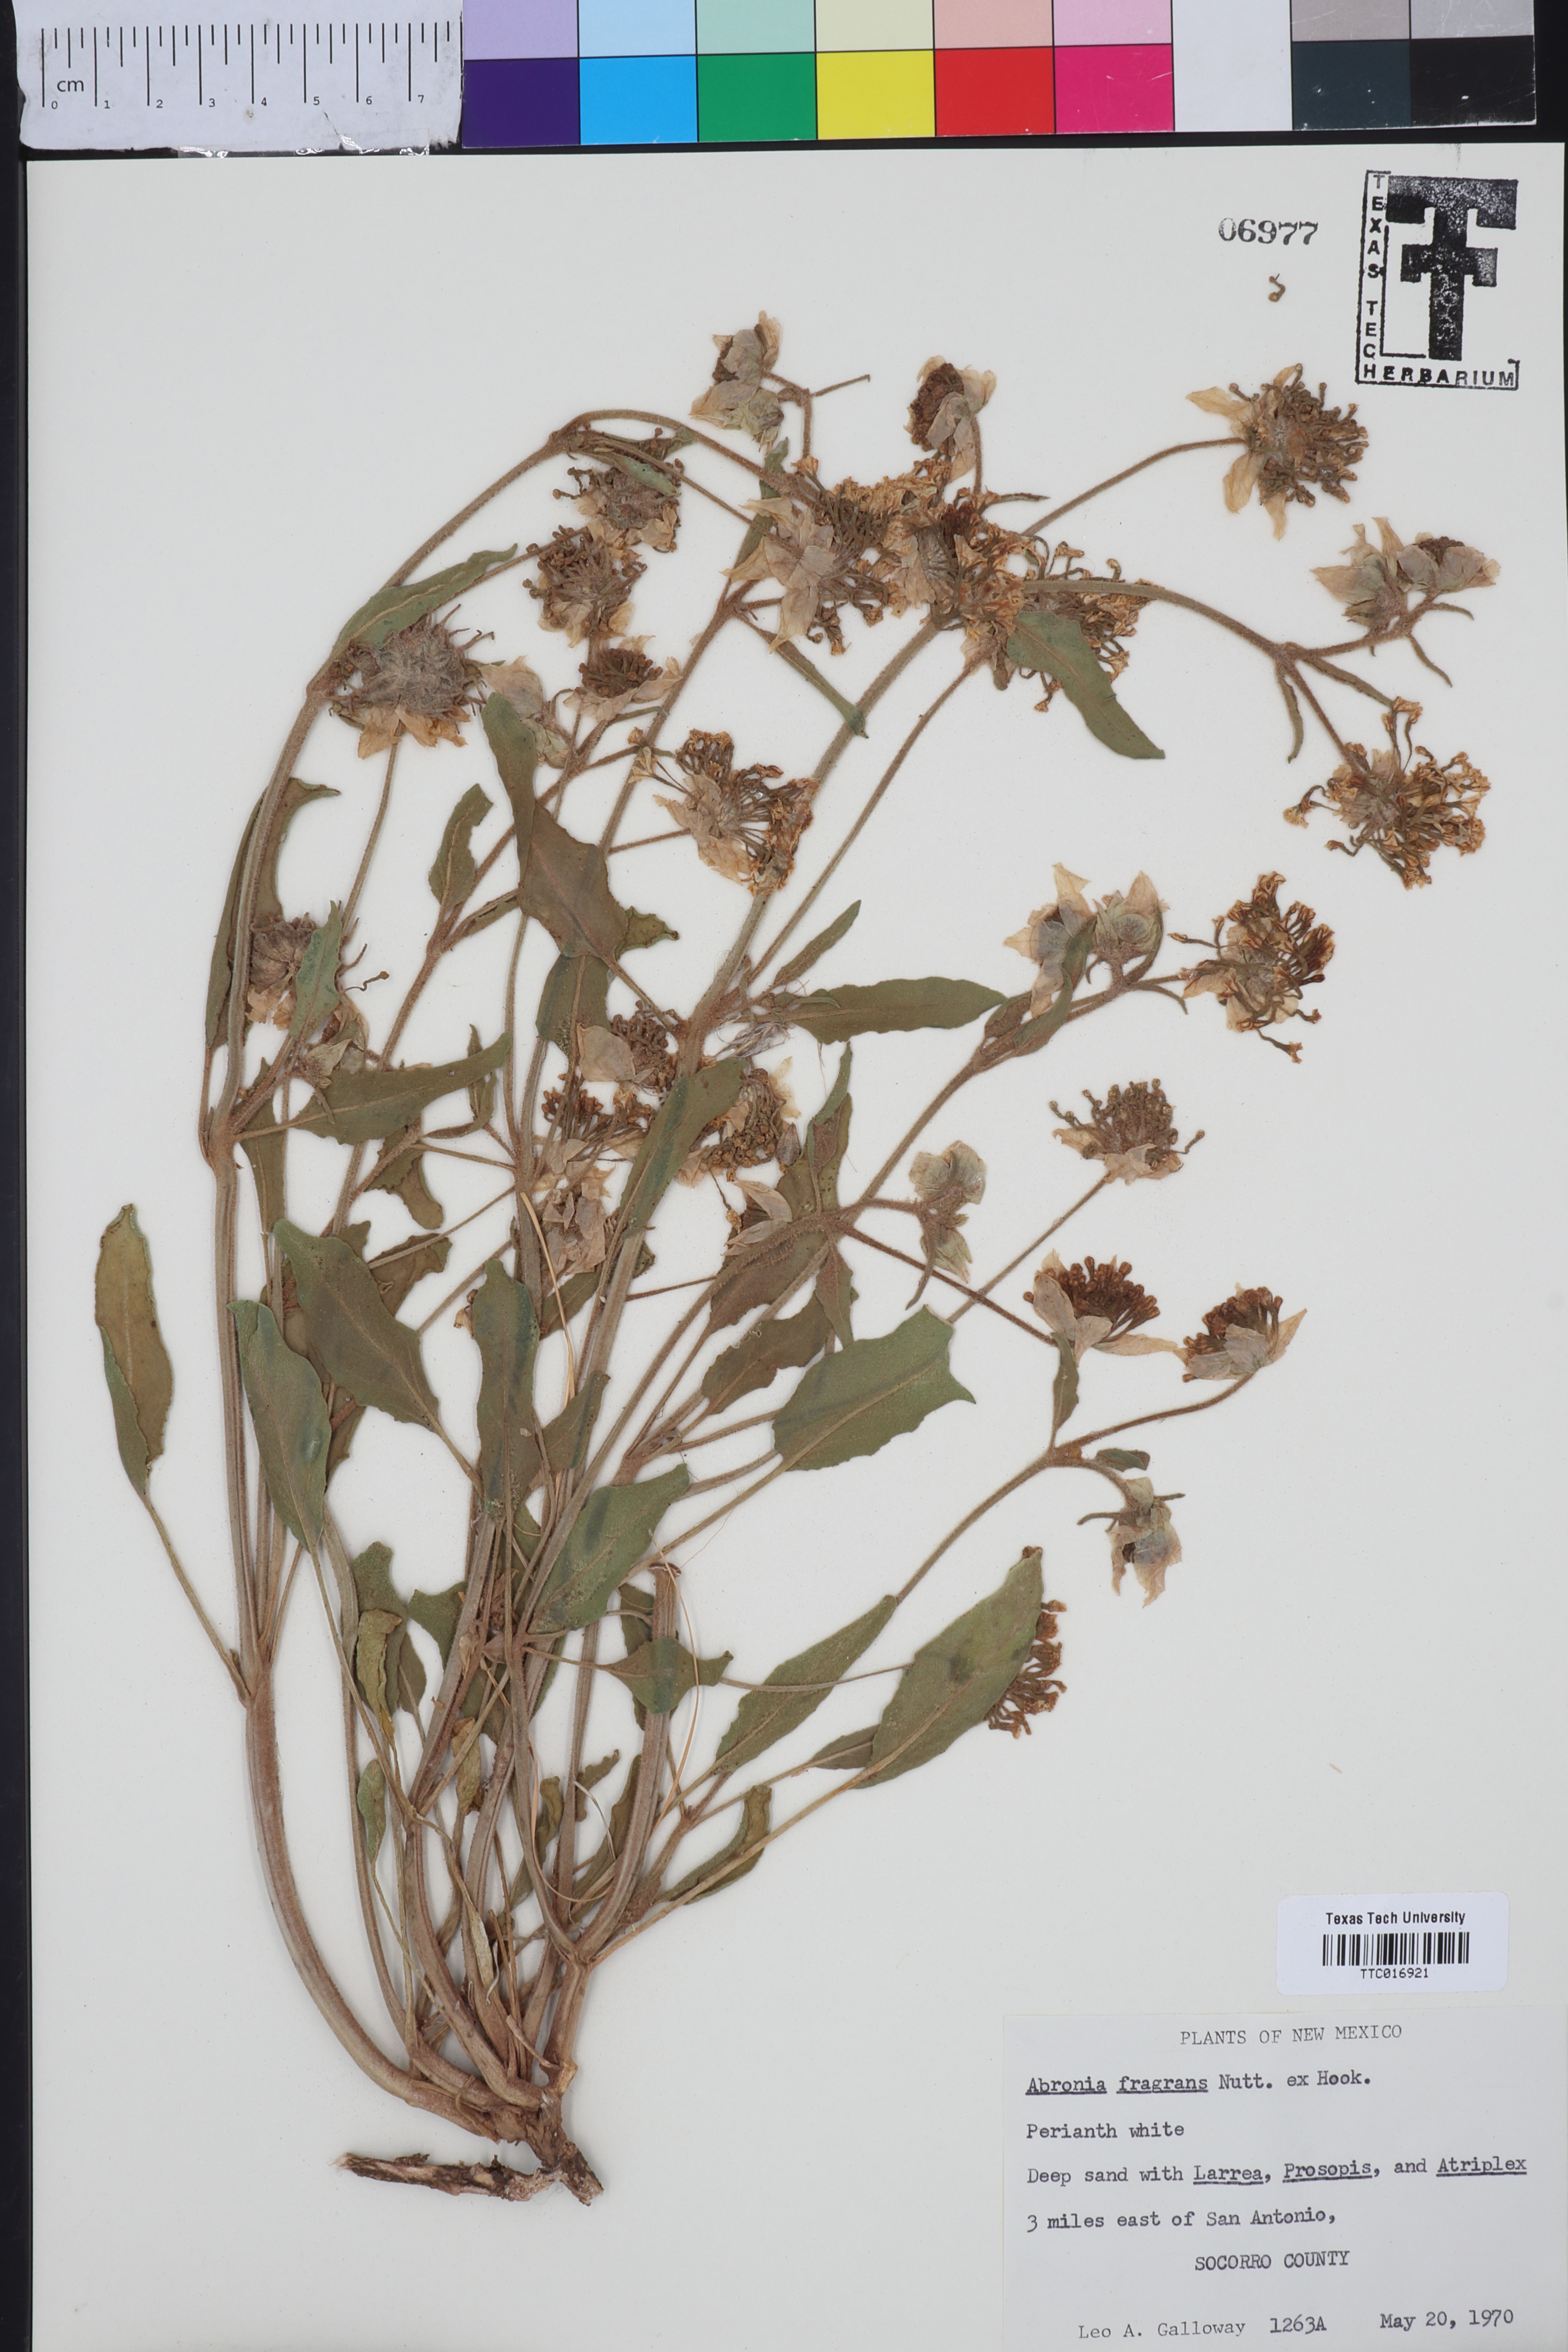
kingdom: Plantae
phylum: Tracheophyta
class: Magnoliopsida
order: Caryophyllales
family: Nyctaginaceae
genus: Abronia
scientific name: Abronia fragrans
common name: Fragrant sand-verbena
